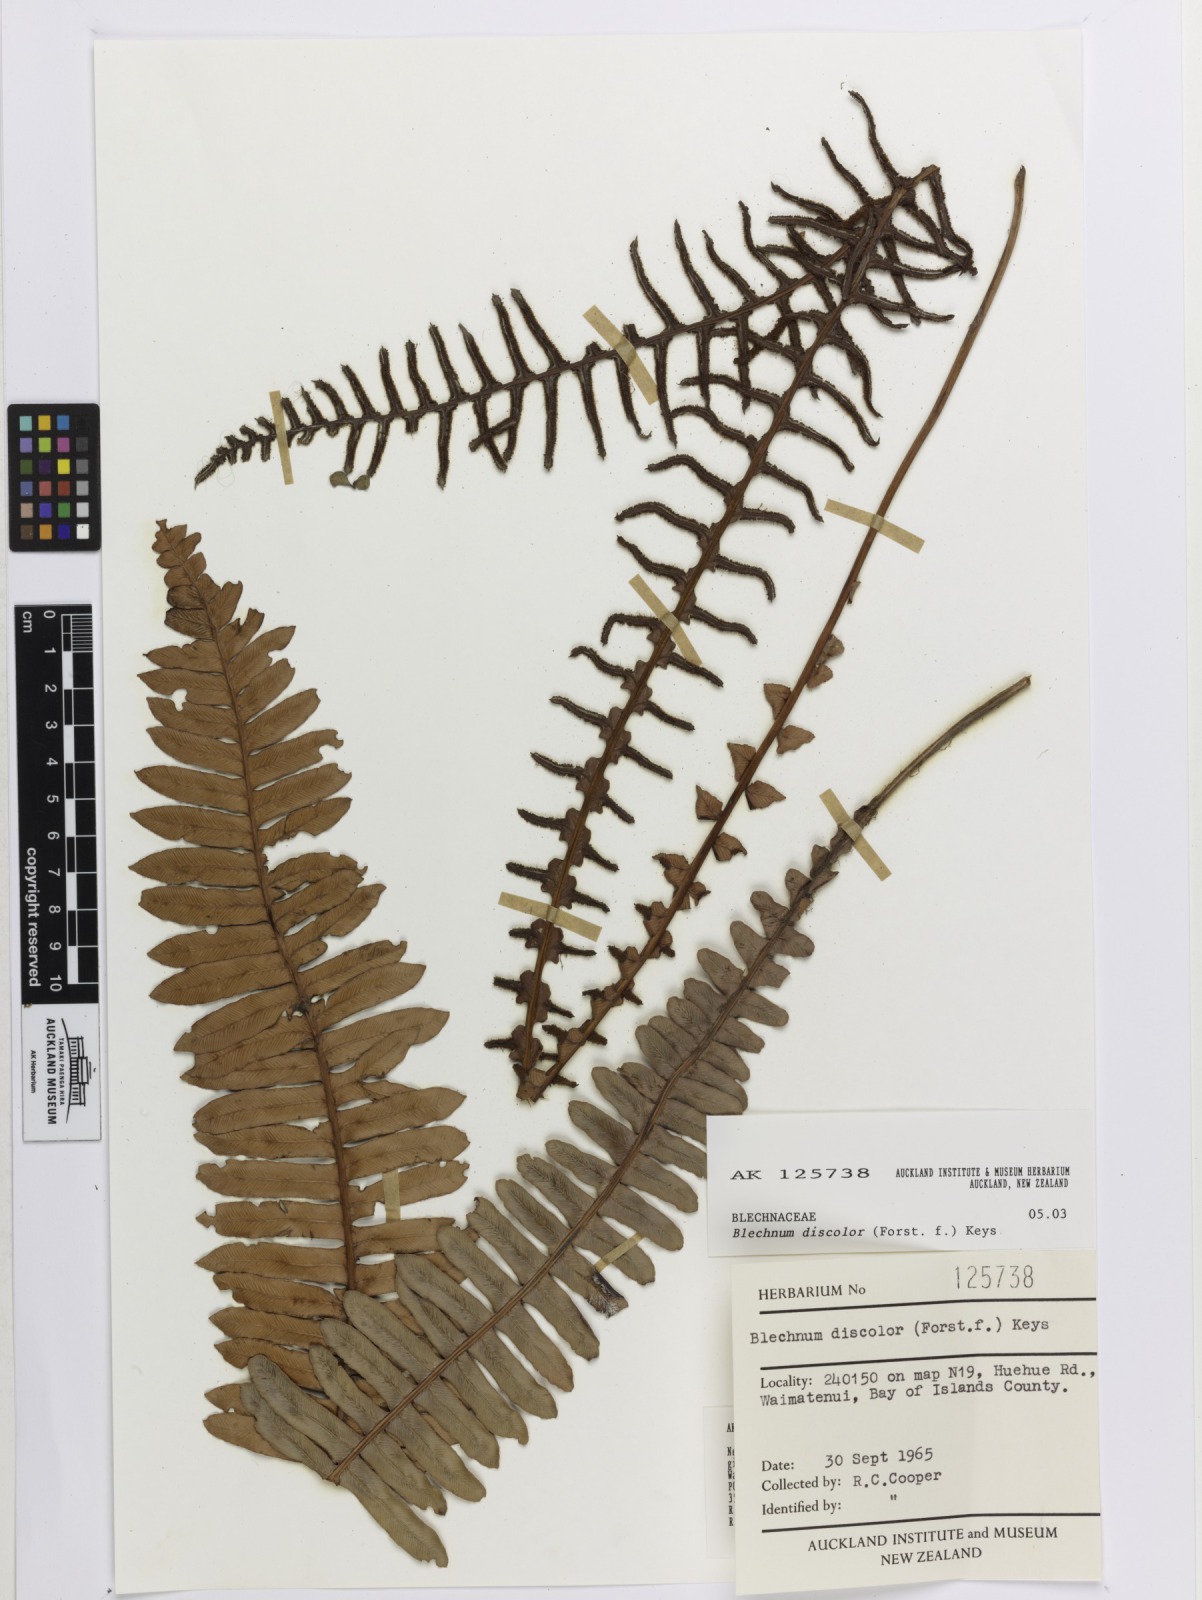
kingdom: Plantae
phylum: Tracheophyta
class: Polypodiopsida
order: Polypodiales
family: Blechnaceae
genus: Lomaria
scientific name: Lomaria discolor
